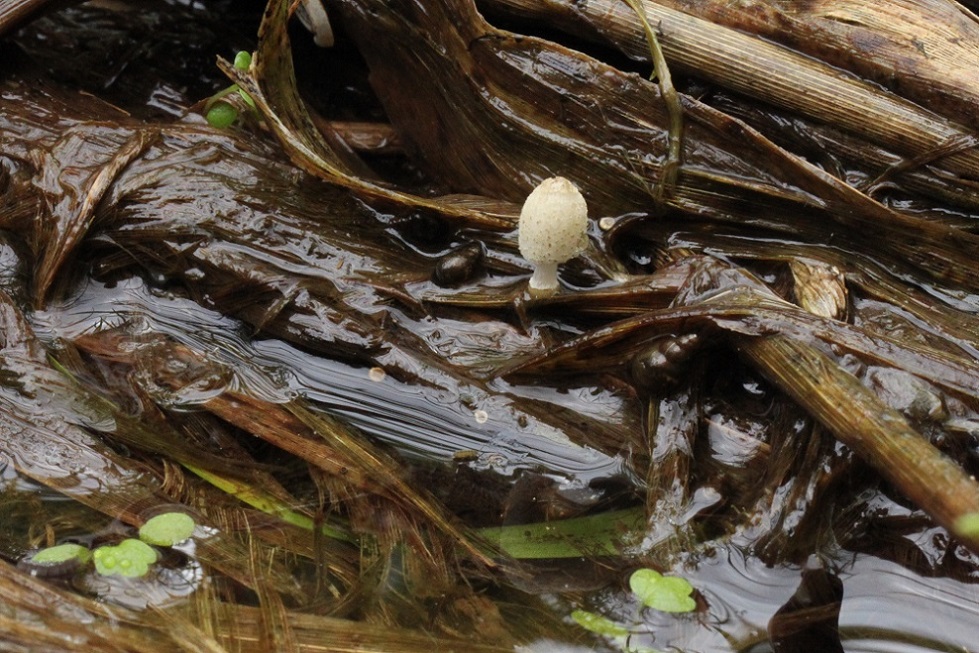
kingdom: Fungi
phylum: Basidiomycota
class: Agaricomycetes
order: Agaricales
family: Psathyrellaceae
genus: Coprinopsis
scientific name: Coprinopsis kubickae
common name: amfibie-blækhat
